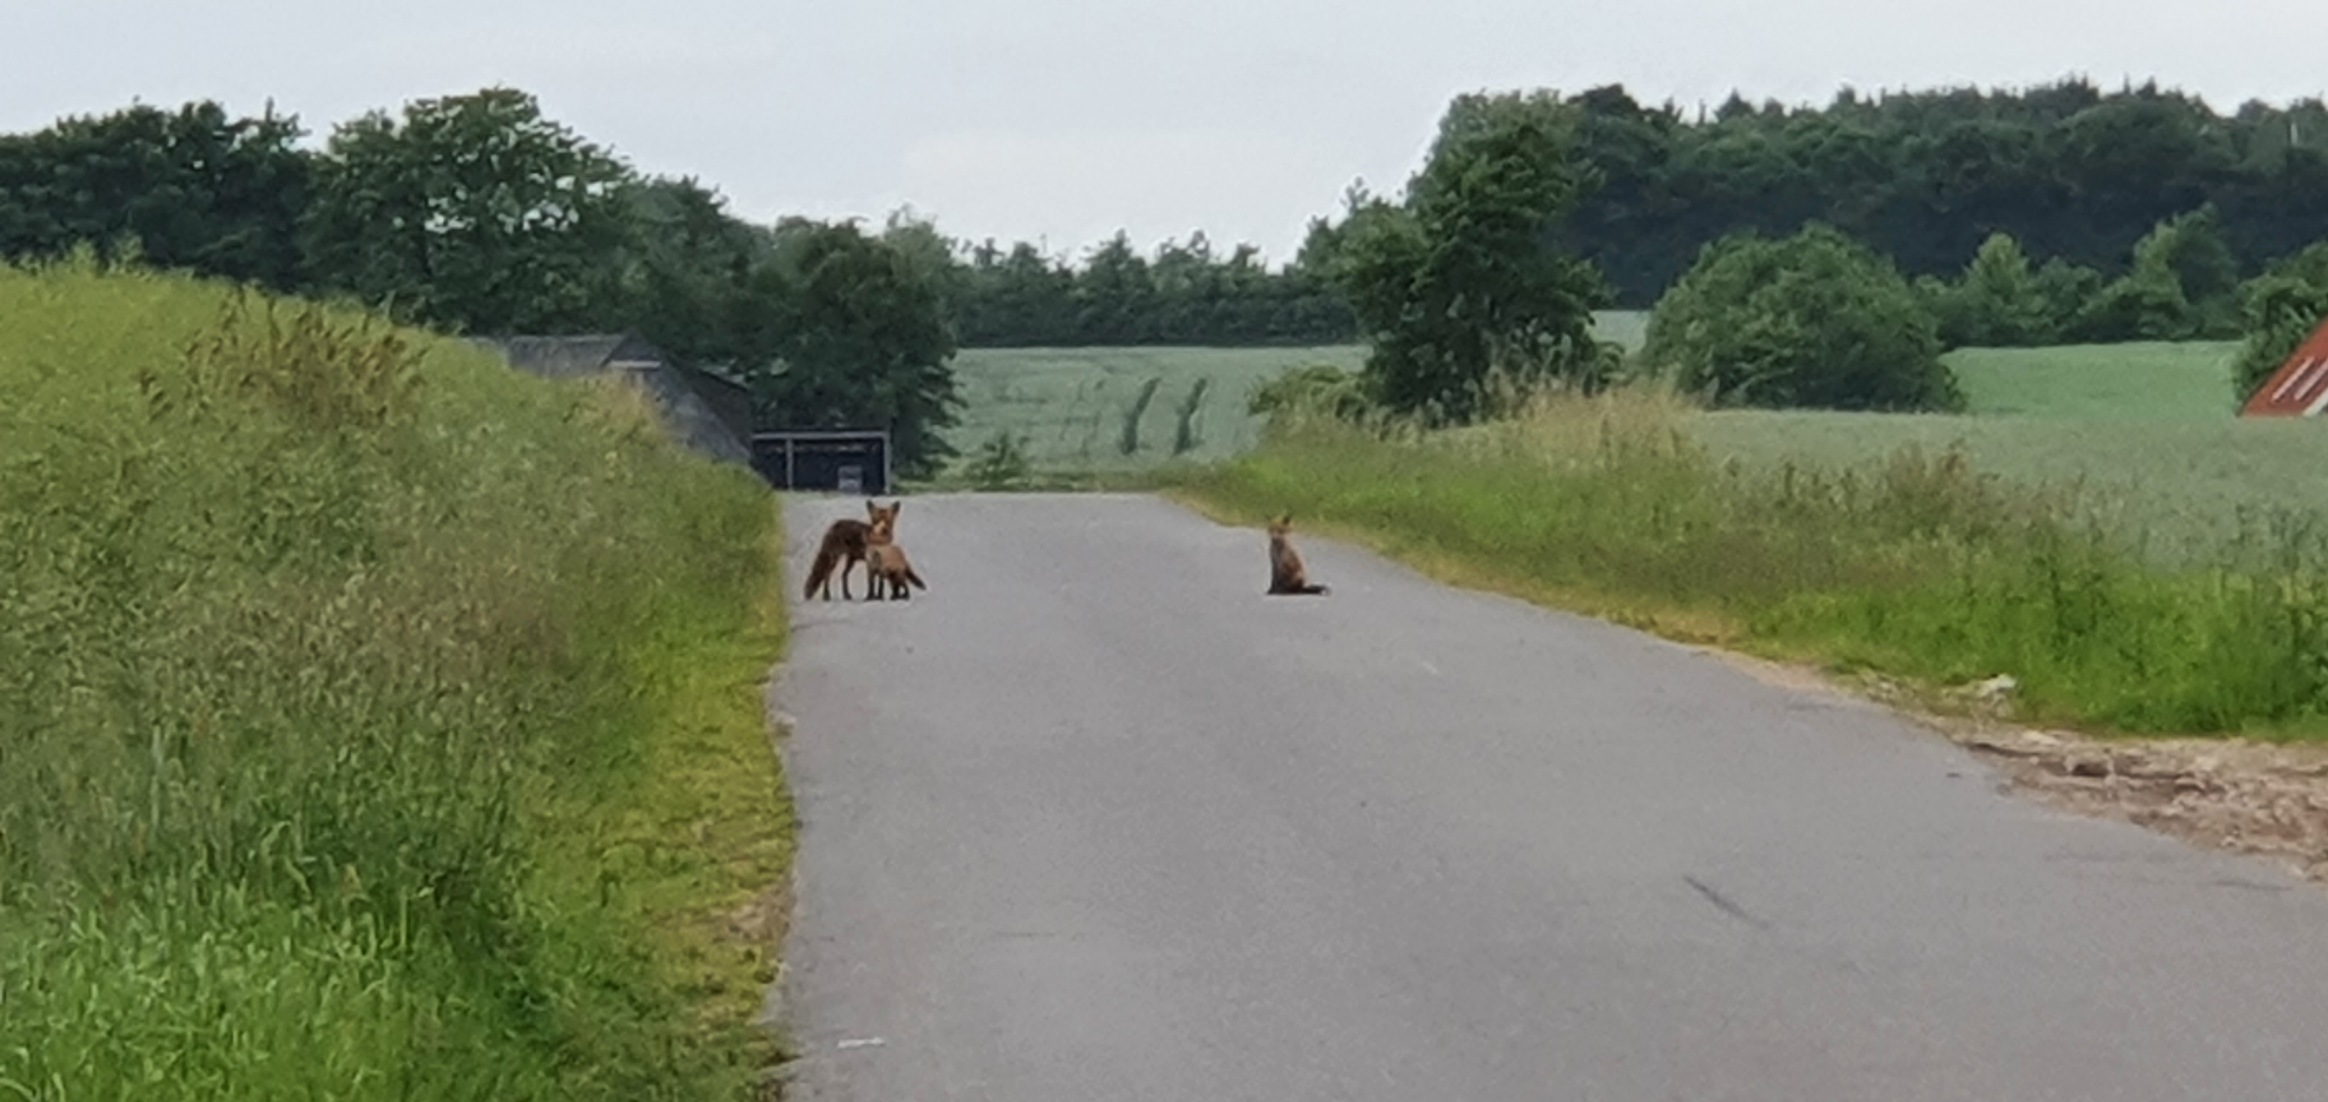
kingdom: Animalia
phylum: Chordata
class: Mammalia
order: Carnivora
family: Canidae
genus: Vulpes
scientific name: Vulpes vulpes
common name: Ræv
